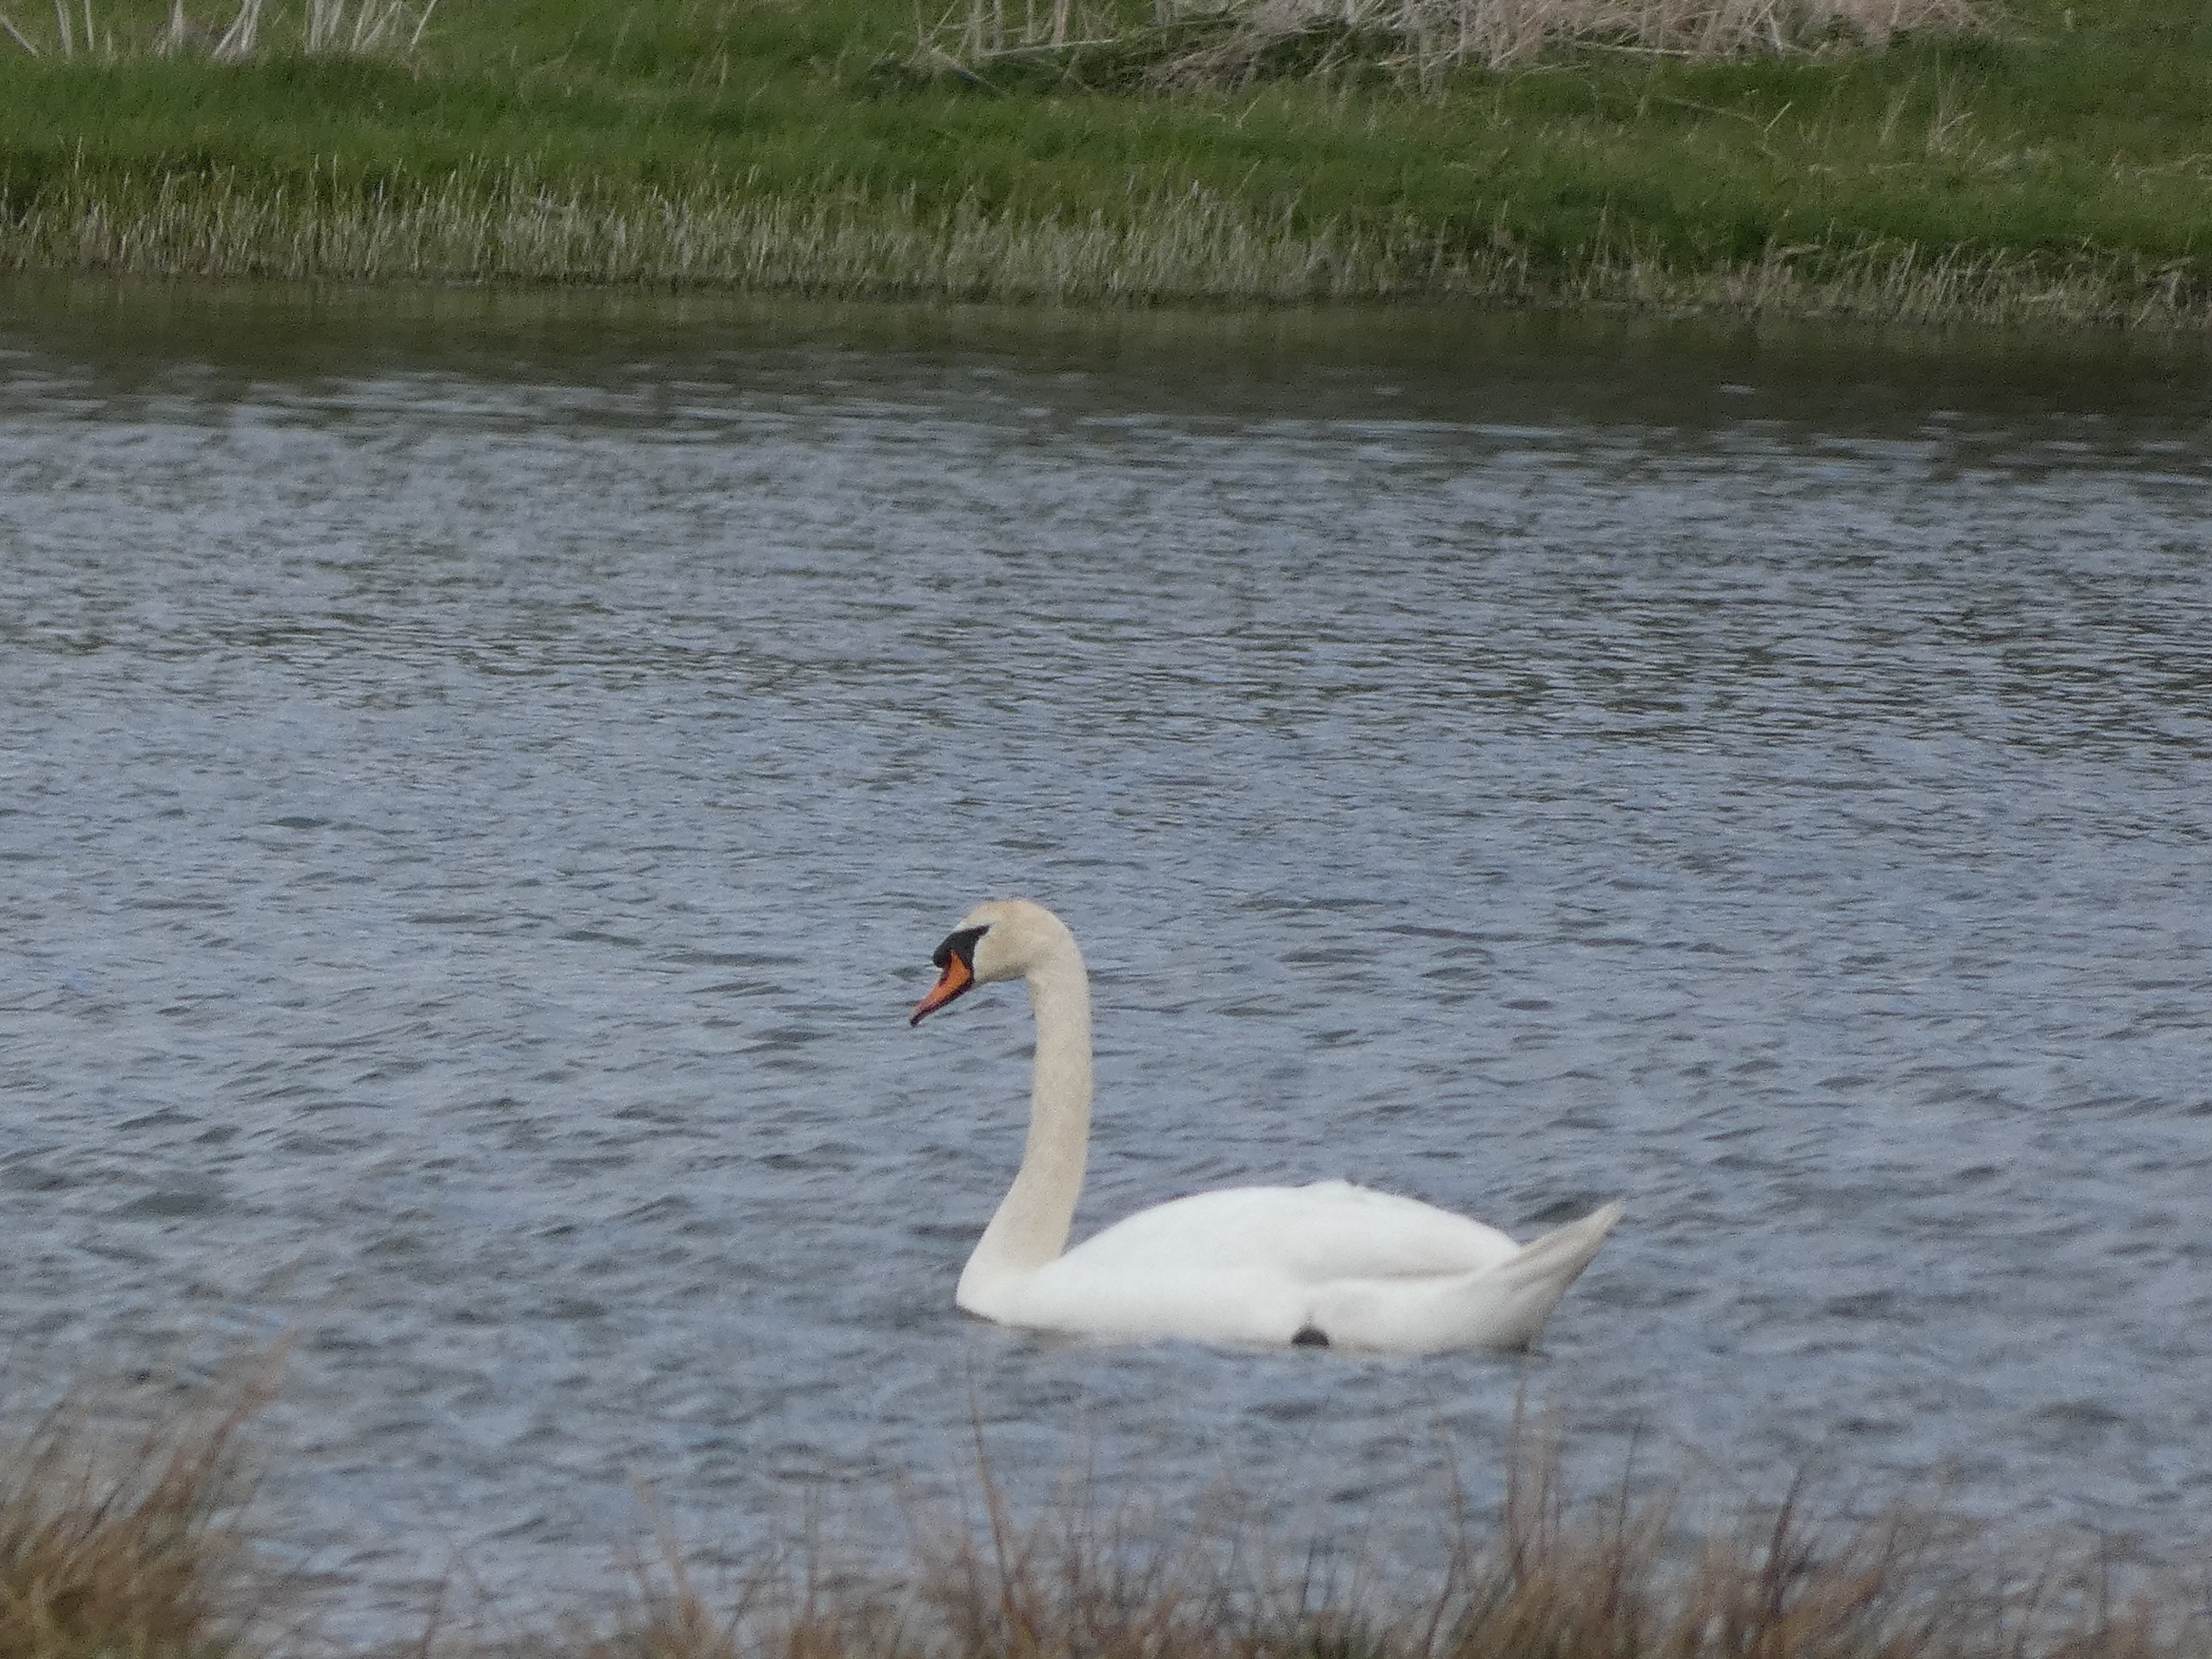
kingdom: Animalia
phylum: Chordata
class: Aves
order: Anseriformes
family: Anatidae
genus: Cygnus
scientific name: Cygnus olor
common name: Knopsvane
